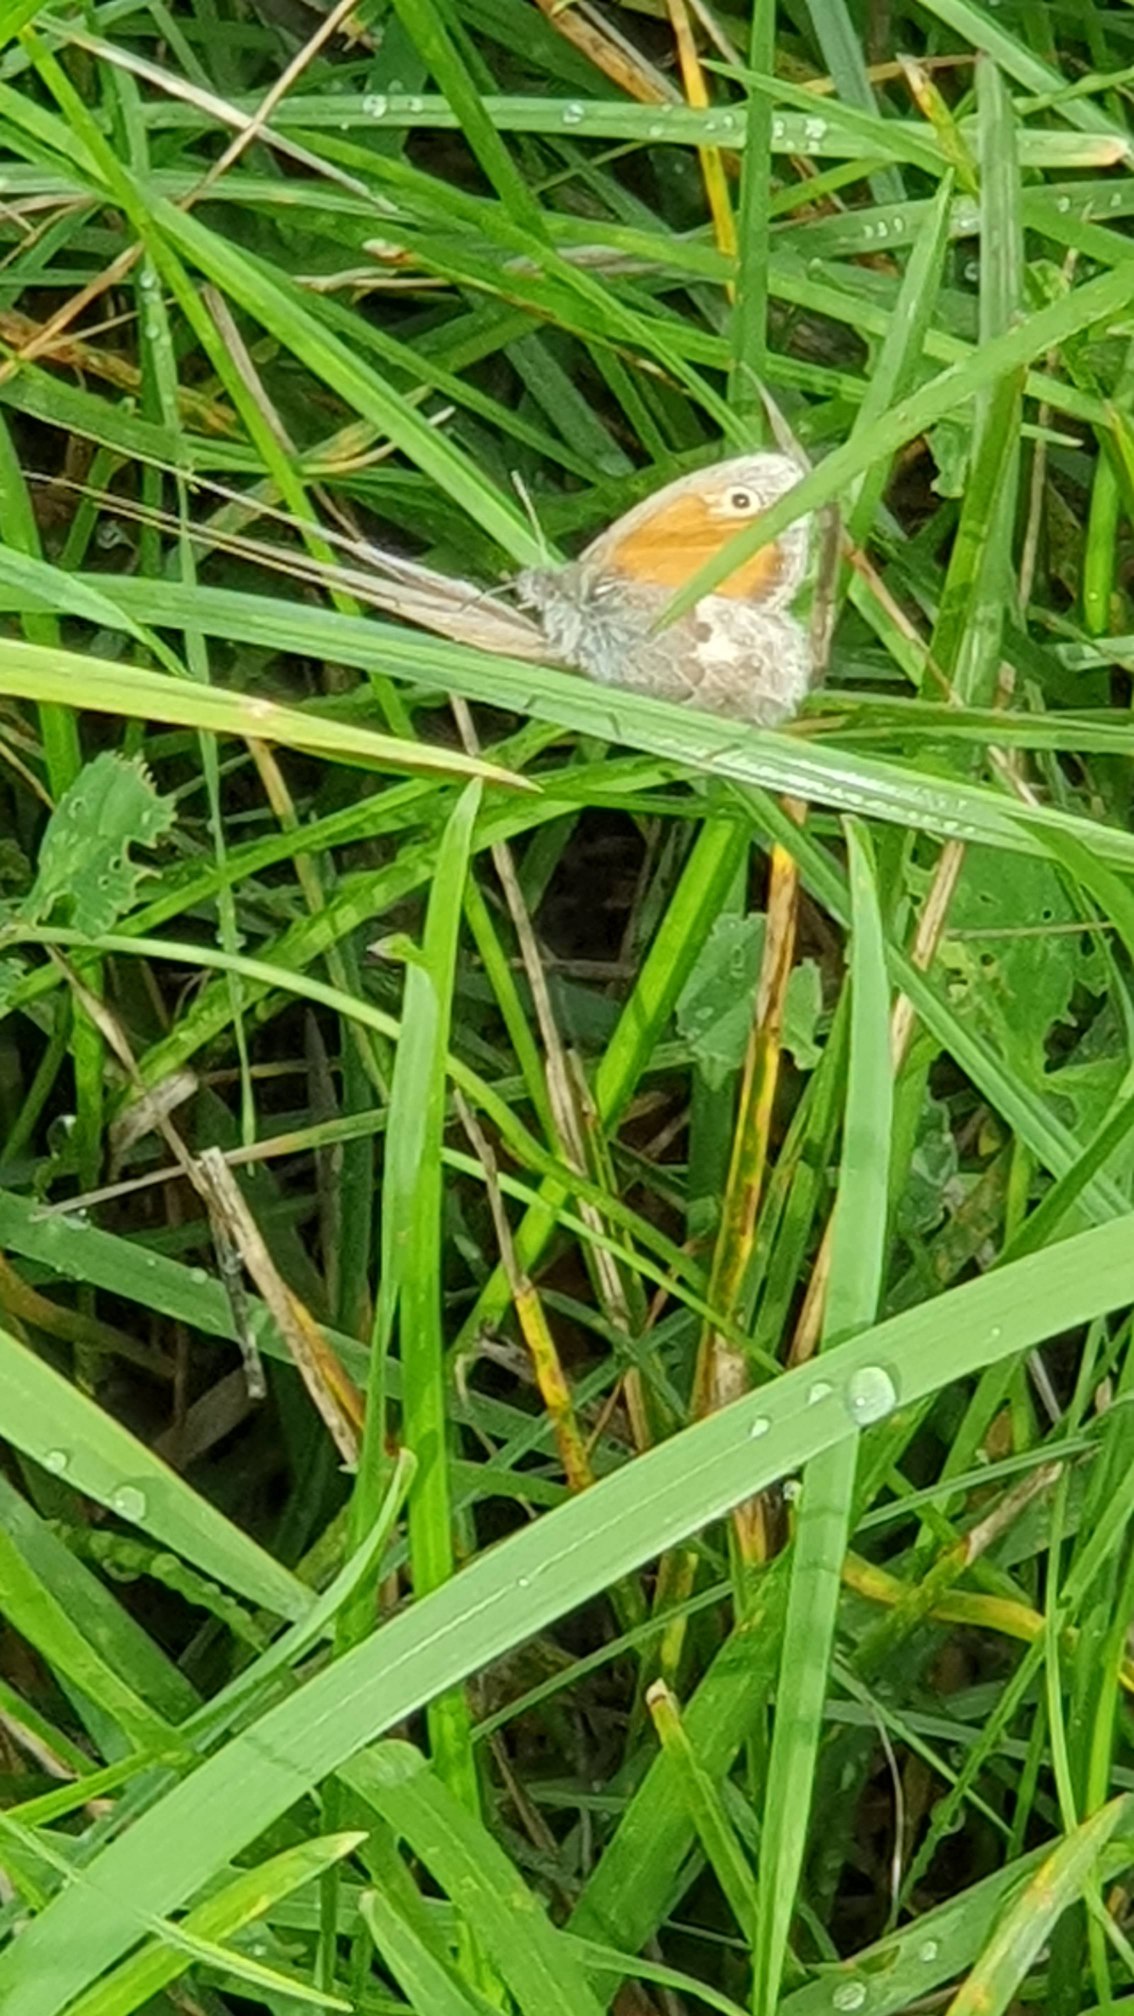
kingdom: Animalia
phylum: Arthropoda
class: Insecta
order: Lepidoptera
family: Nymphalidae
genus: Coenonympha
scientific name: Coenonympha pamphilus
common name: Okkergul randøje
